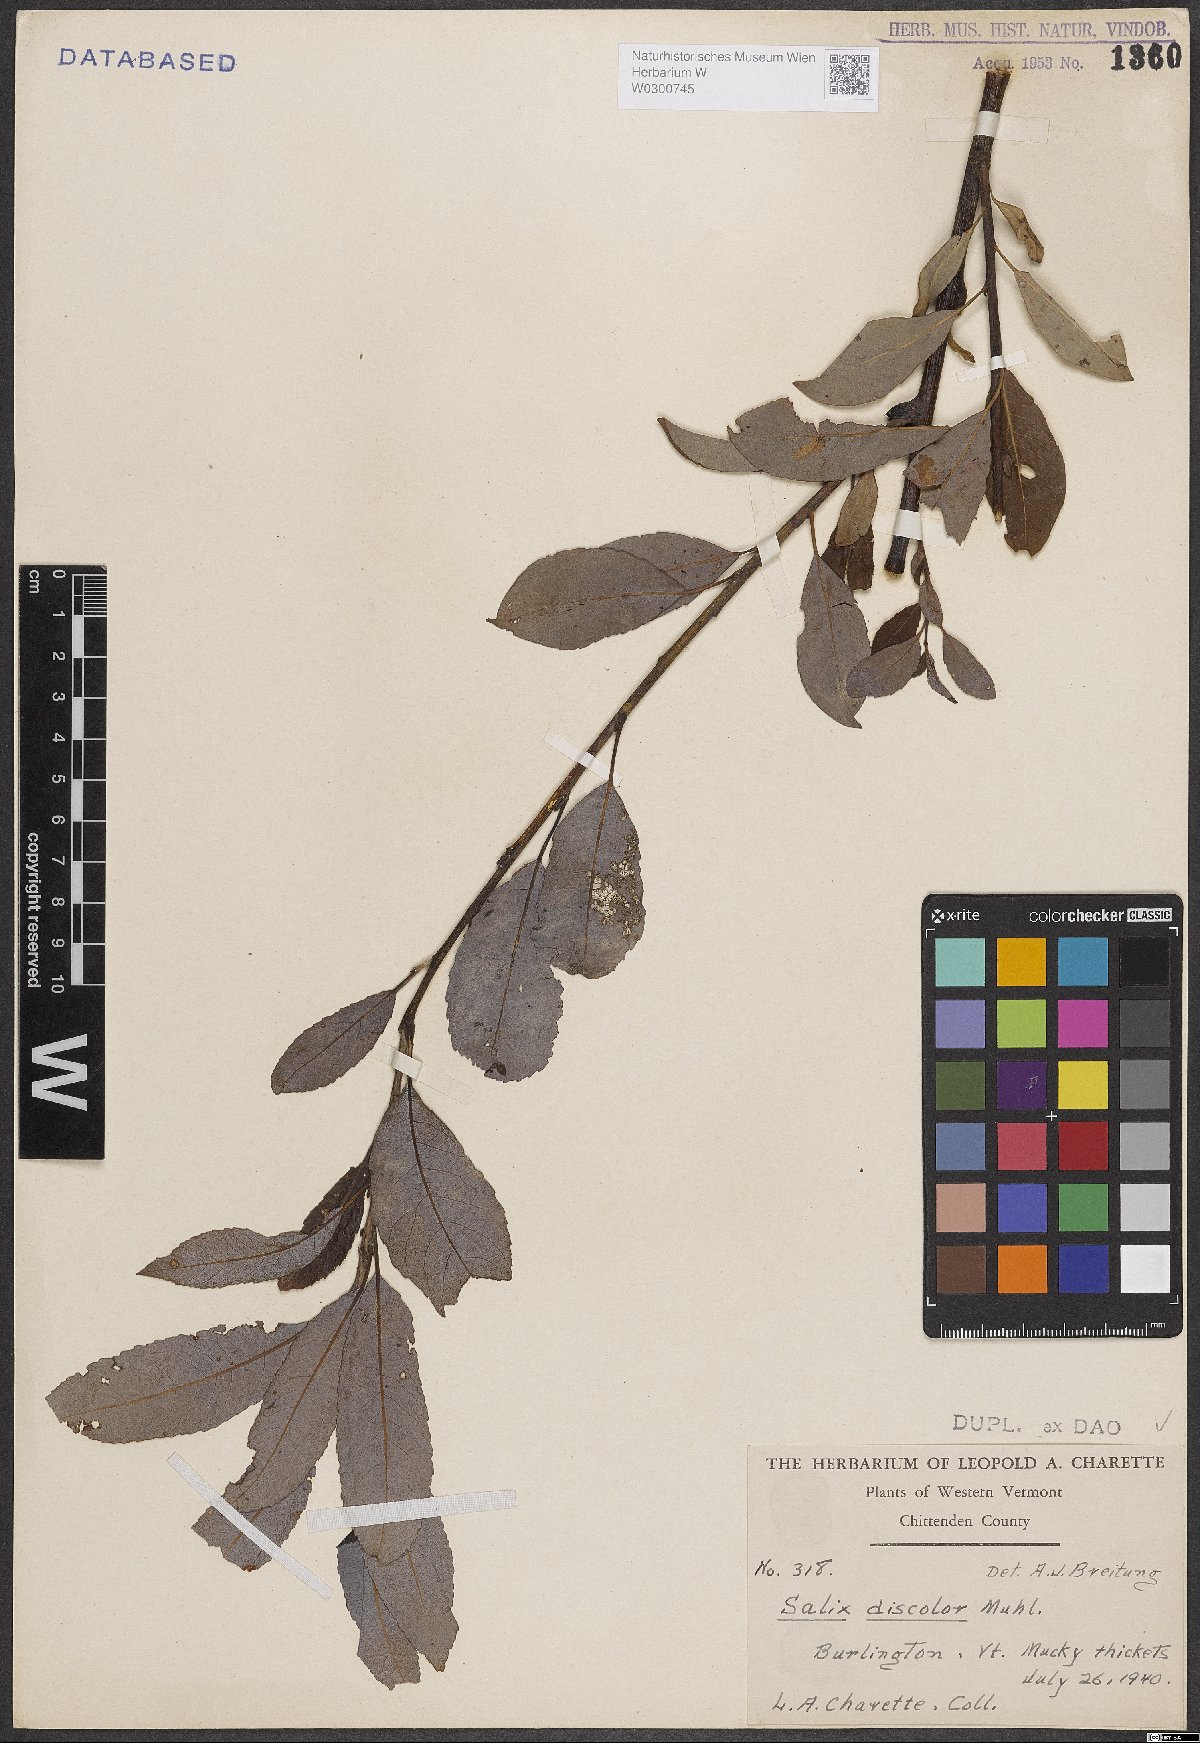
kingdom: Plantae
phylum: Tracheophyta
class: Magnoliopsida
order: Malpighiales
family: Salicaceae
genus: Salix
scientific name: Salix discolor
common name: Glaucous willow
